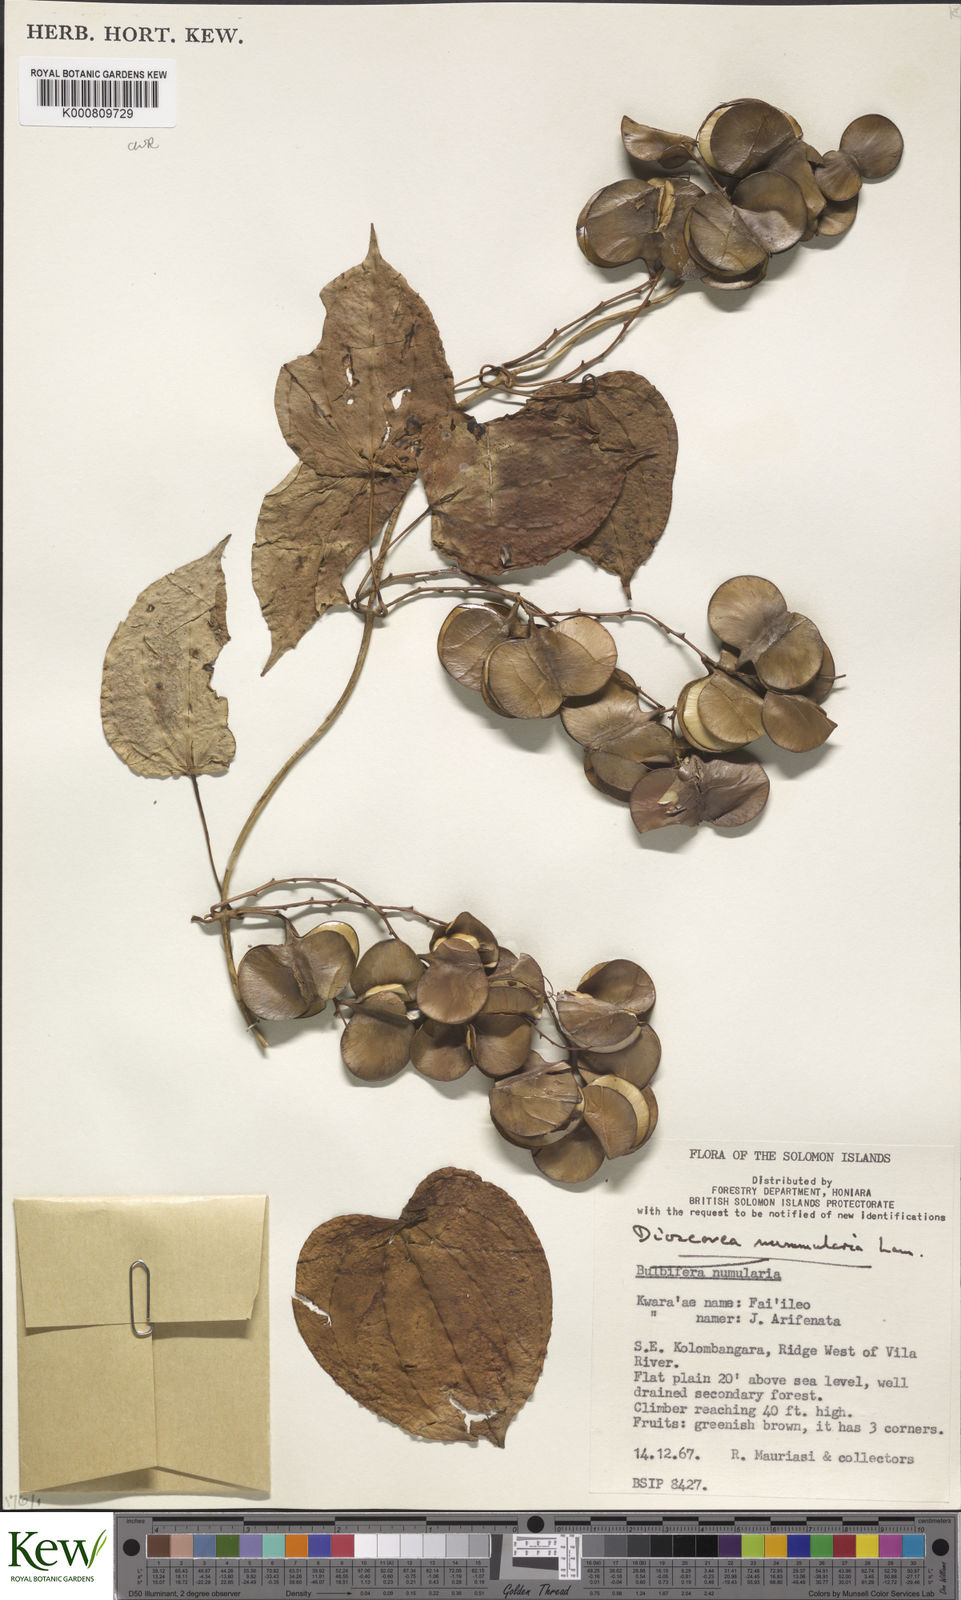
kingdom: Plantae
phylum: Tracheophyta
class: Liliopsida
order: Dioscoreales
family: Dioscoreaceae
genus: Dioscorea
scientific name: Dioscorea nummularia
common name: Pacific yam
